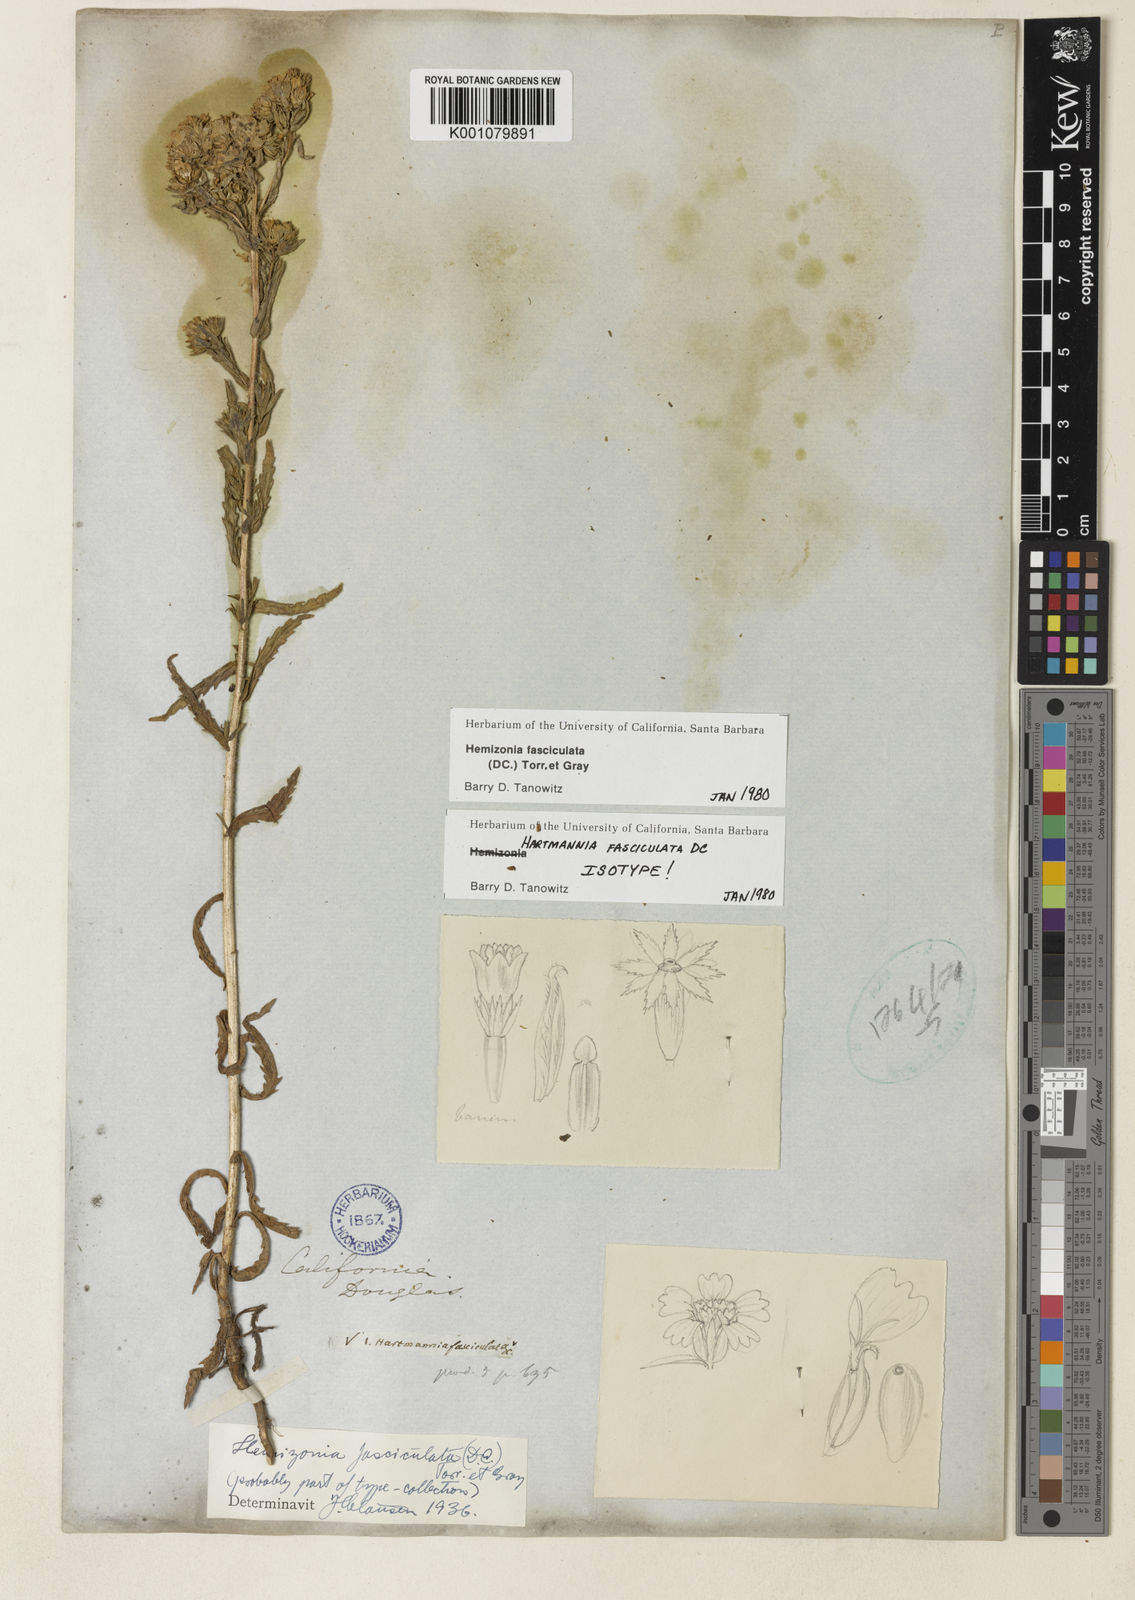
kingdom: Plantae
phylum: Tracheophyta
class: Magnoliopsida
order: Asterales
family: Asteraceae
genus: Deinandra
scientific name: Deinandra fasciculata
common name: Clustered tarweed
